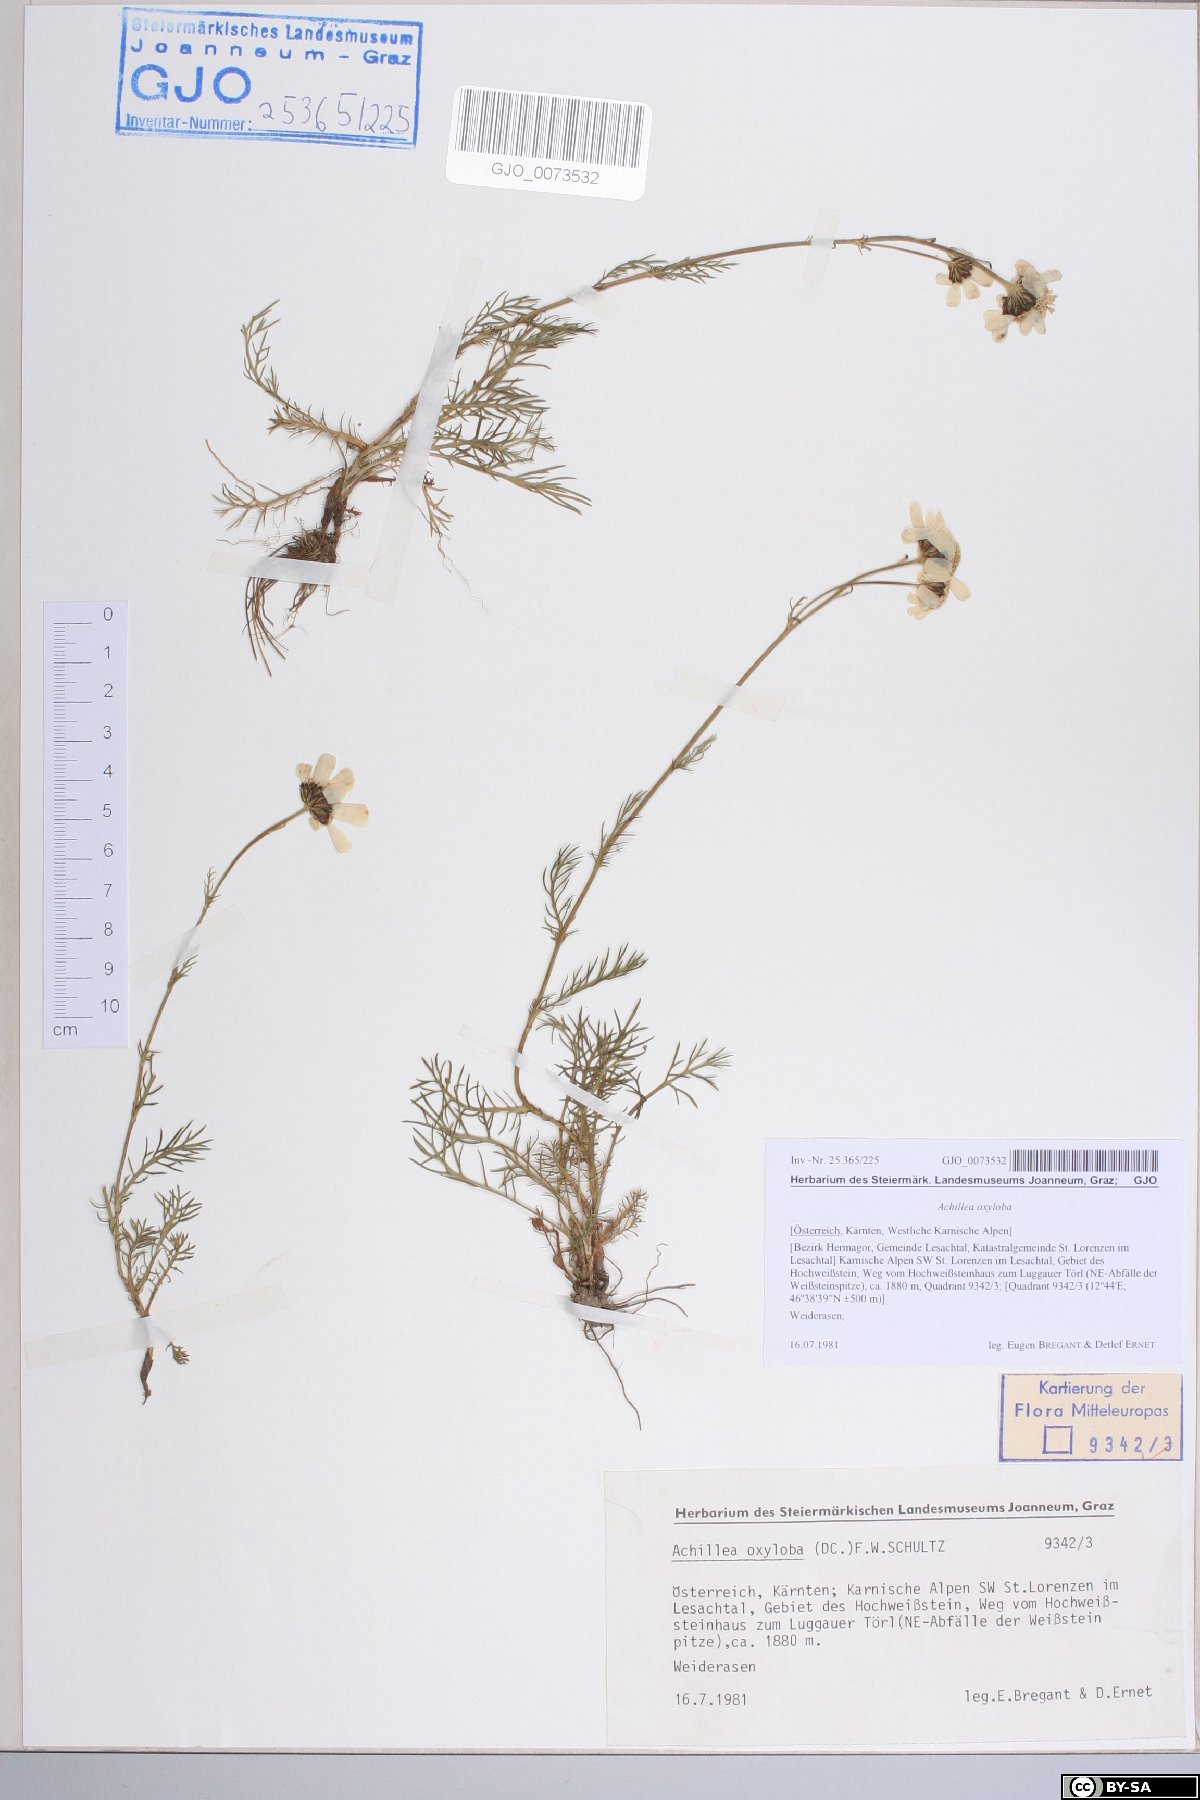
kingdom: Plantae
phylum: Tracheophyta
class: Magnoliopsida
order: Asterales
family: Asteraceae
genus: Achillea
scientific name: Achillea oxyloba
